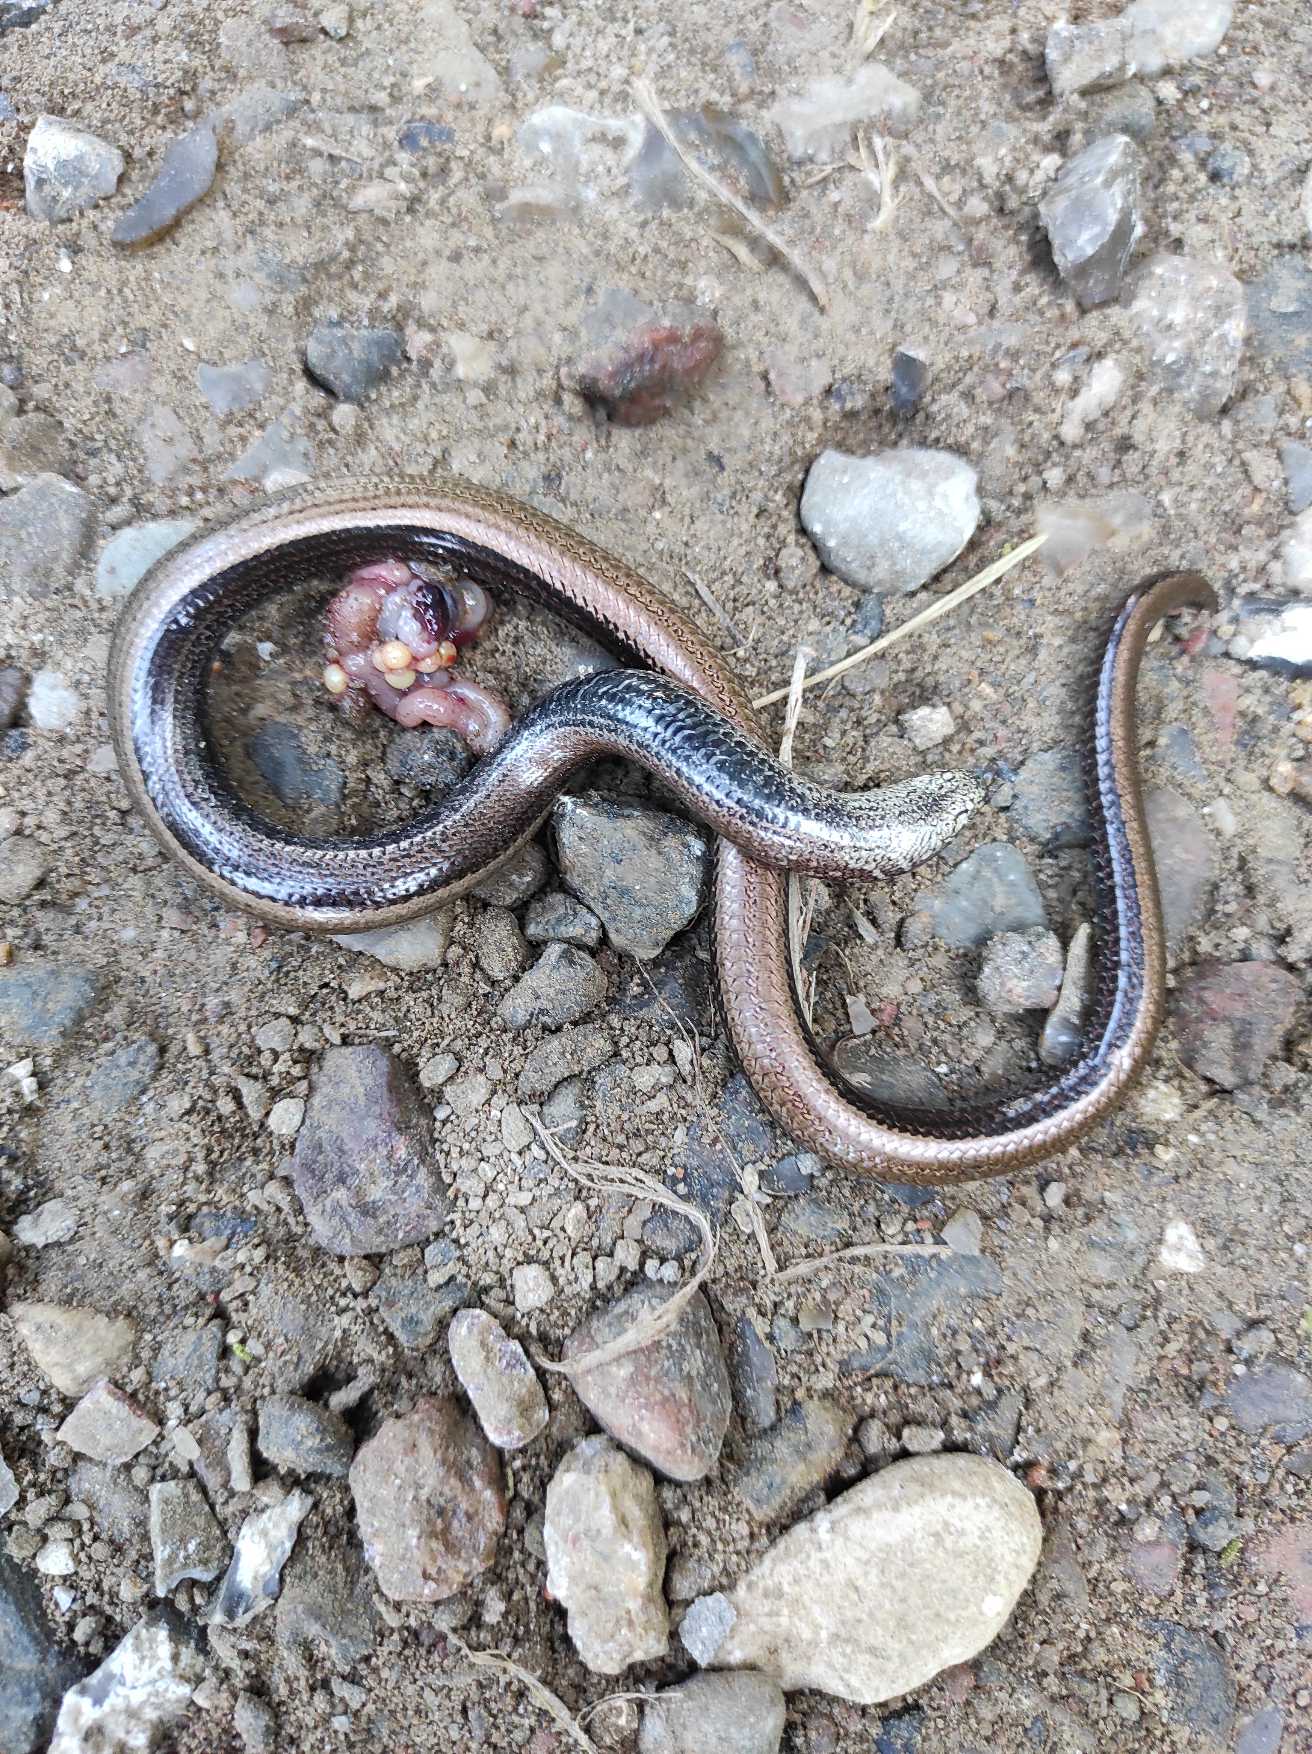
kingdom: Animalia
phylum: Chordata
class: Squamata
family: Anguidae
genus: Anguis
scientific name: Anguis fragilis
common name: Stålorm
